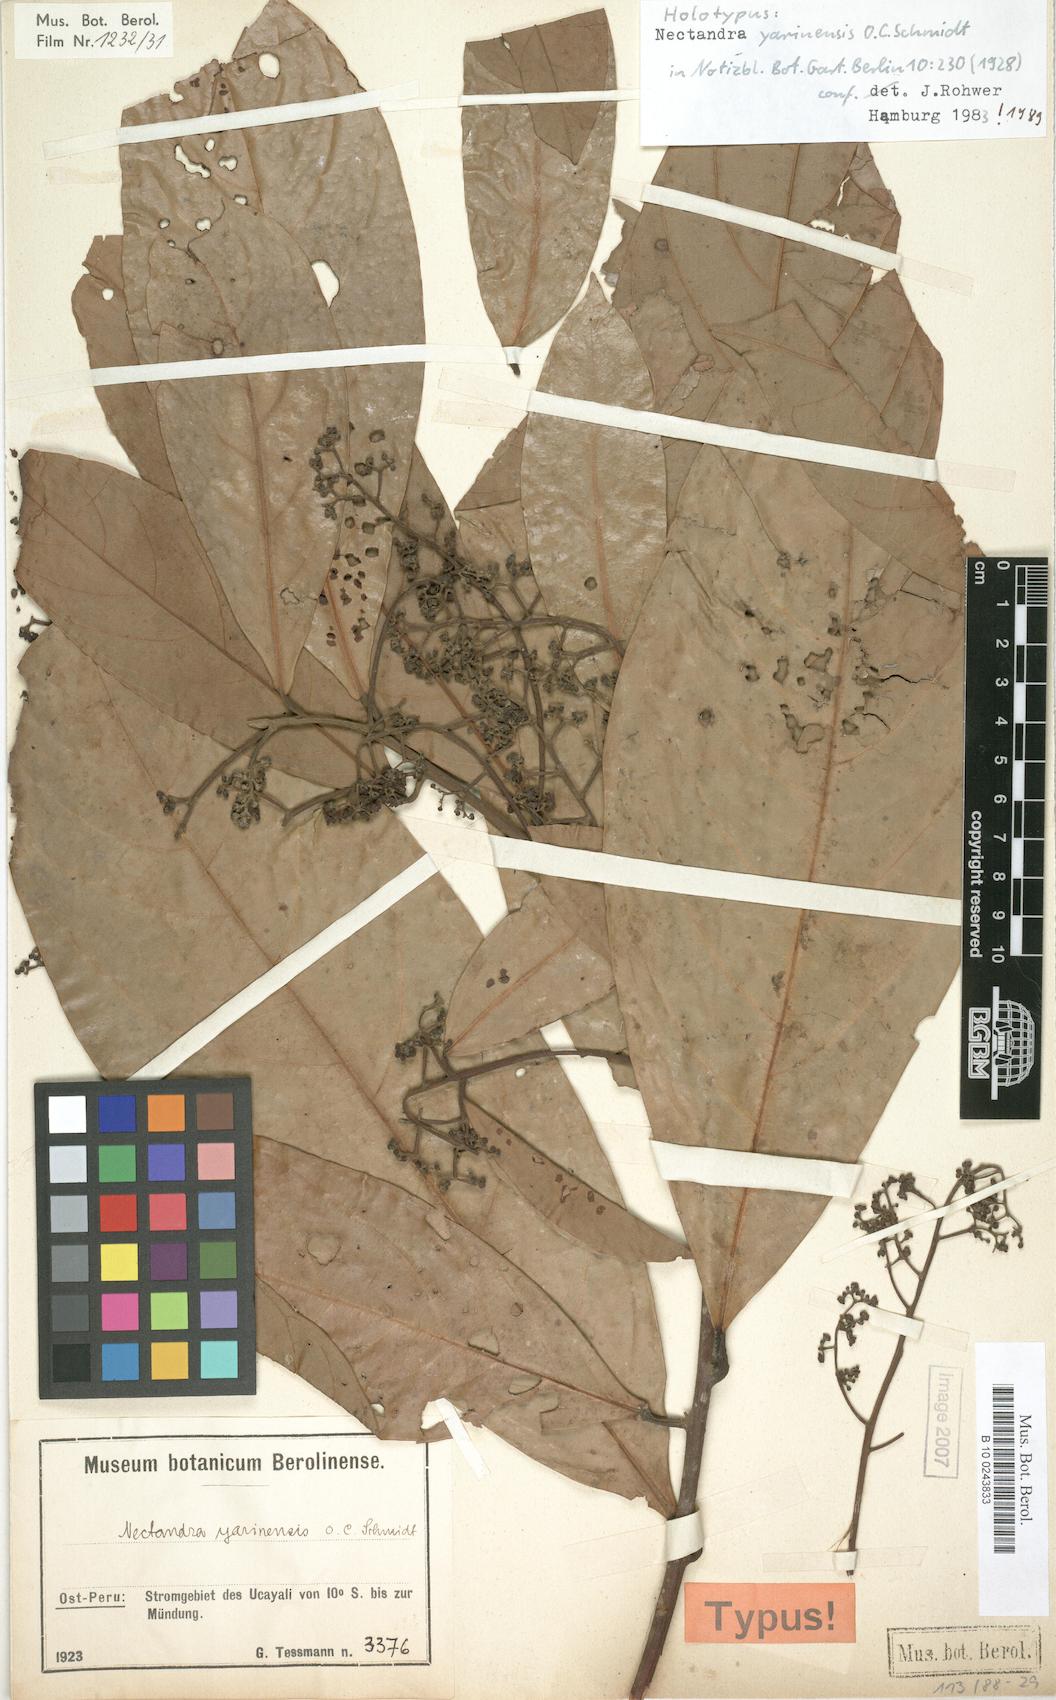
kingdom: Plantae
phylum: Tracheophyta
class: Magnoliopsida
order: Laurales
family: Lauraceae
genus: Nectandra
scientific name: Nectandra yarinensis
